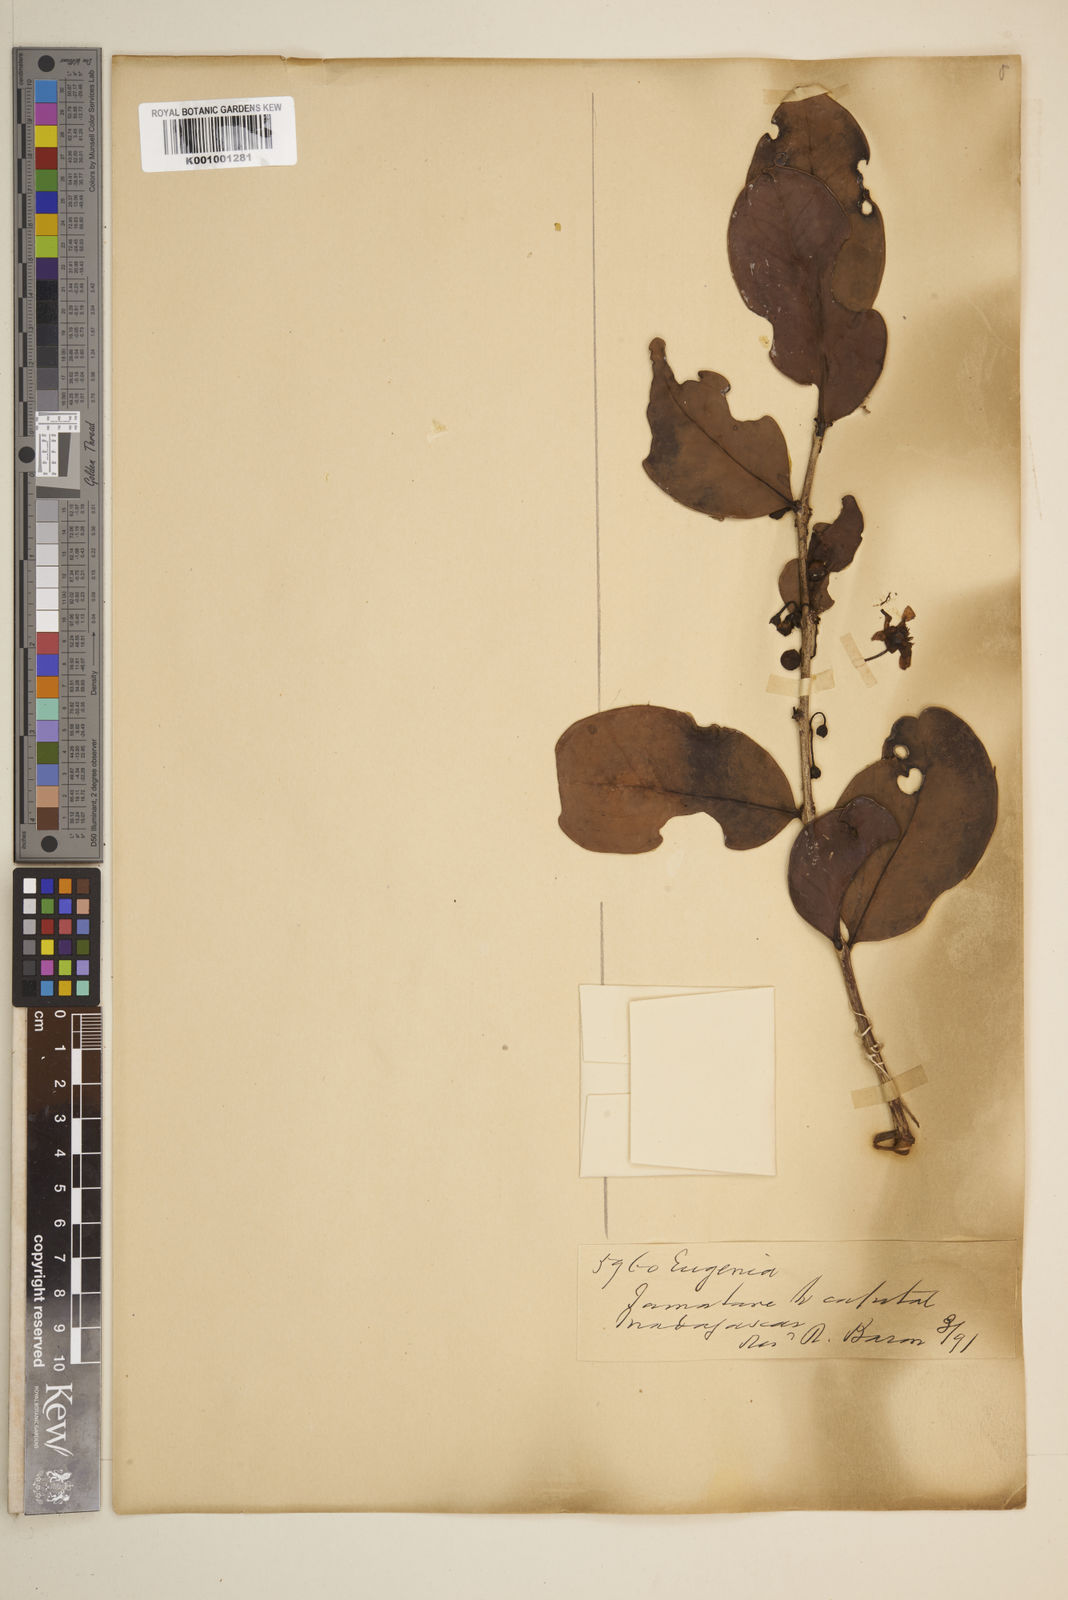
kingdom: Plantae
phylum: Tracheophyta
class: Magnoliopsida
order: Myrtales
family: Myrtaceae
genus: Eugenia
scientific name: Eugenia louvelii
